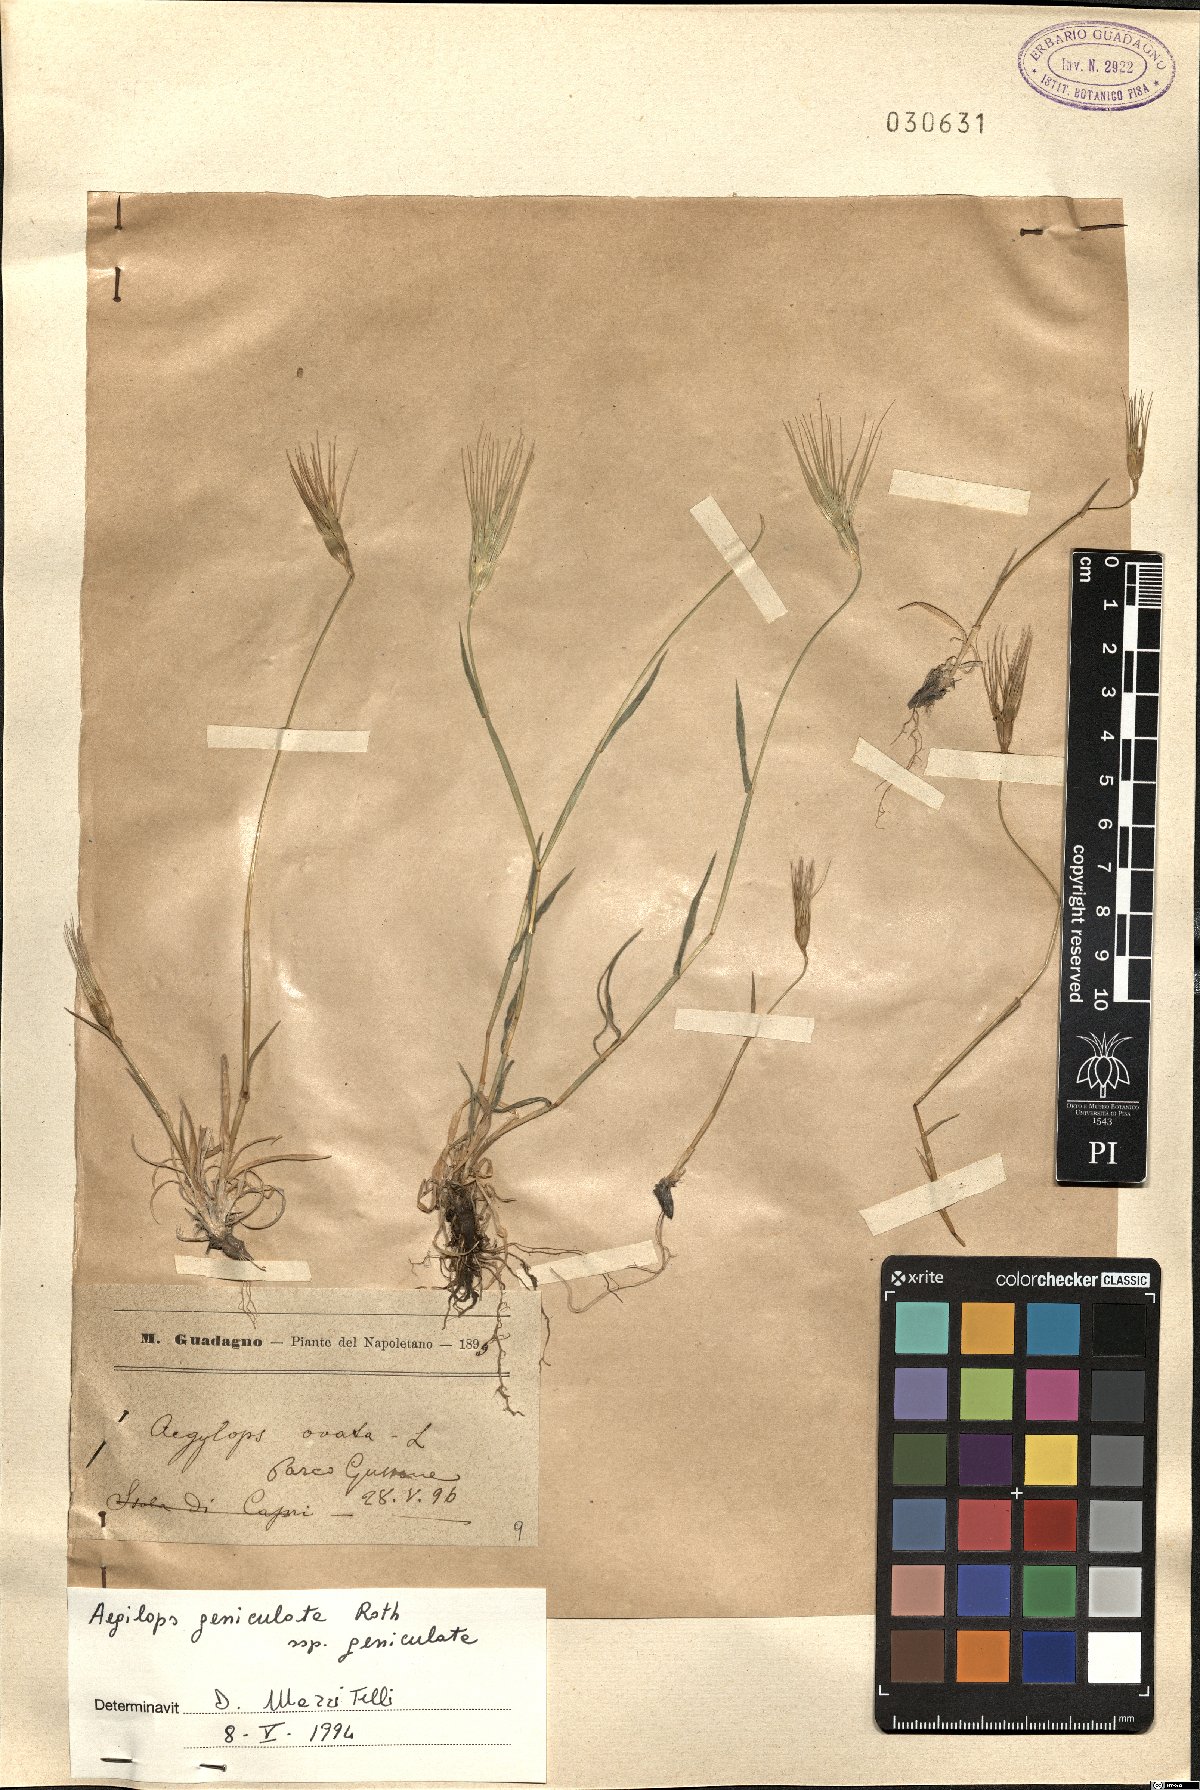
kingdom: Plantae
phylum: Tracheophyta
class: Liliopsida
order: Poales
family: Poaceae
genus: Aegilops
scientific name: Aegilops geniculata
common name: Ovate goat grass
